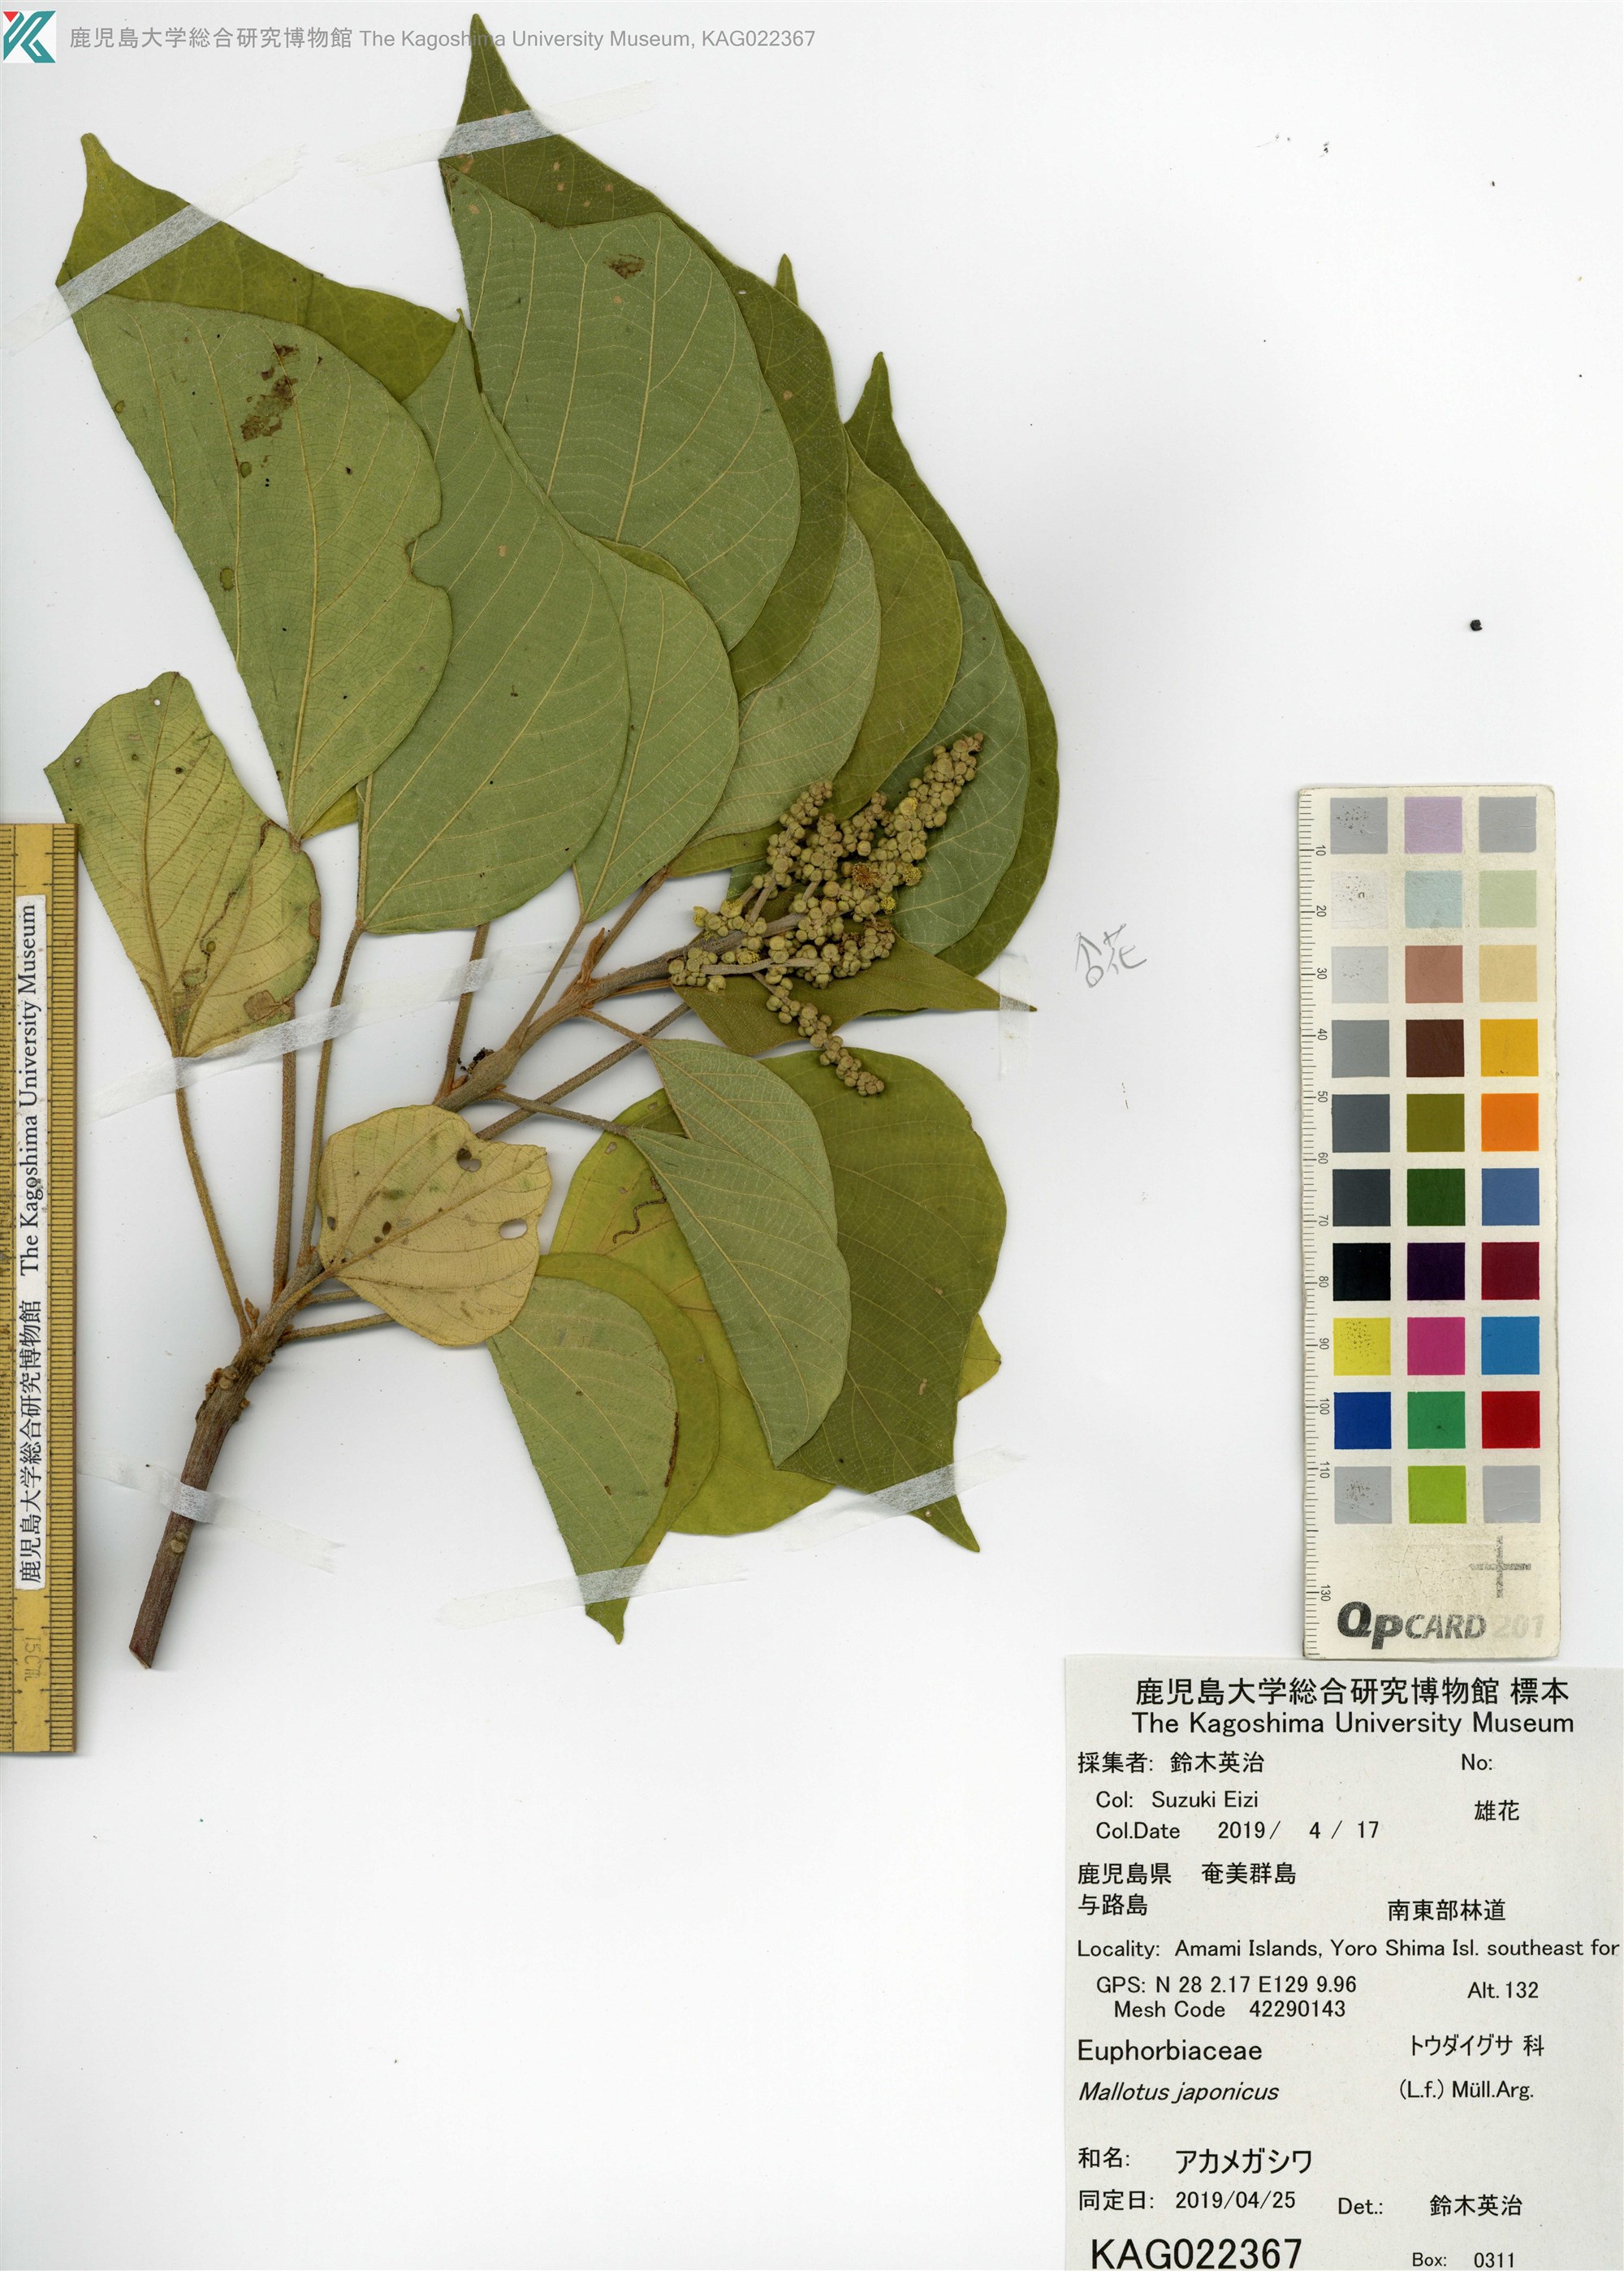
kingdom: Plantae
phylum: Tracheophyta
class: Magnoliopsida
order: Malpighiales
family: Euphorbiaceae
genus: Mallotus
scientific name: Mallotus japonicus
